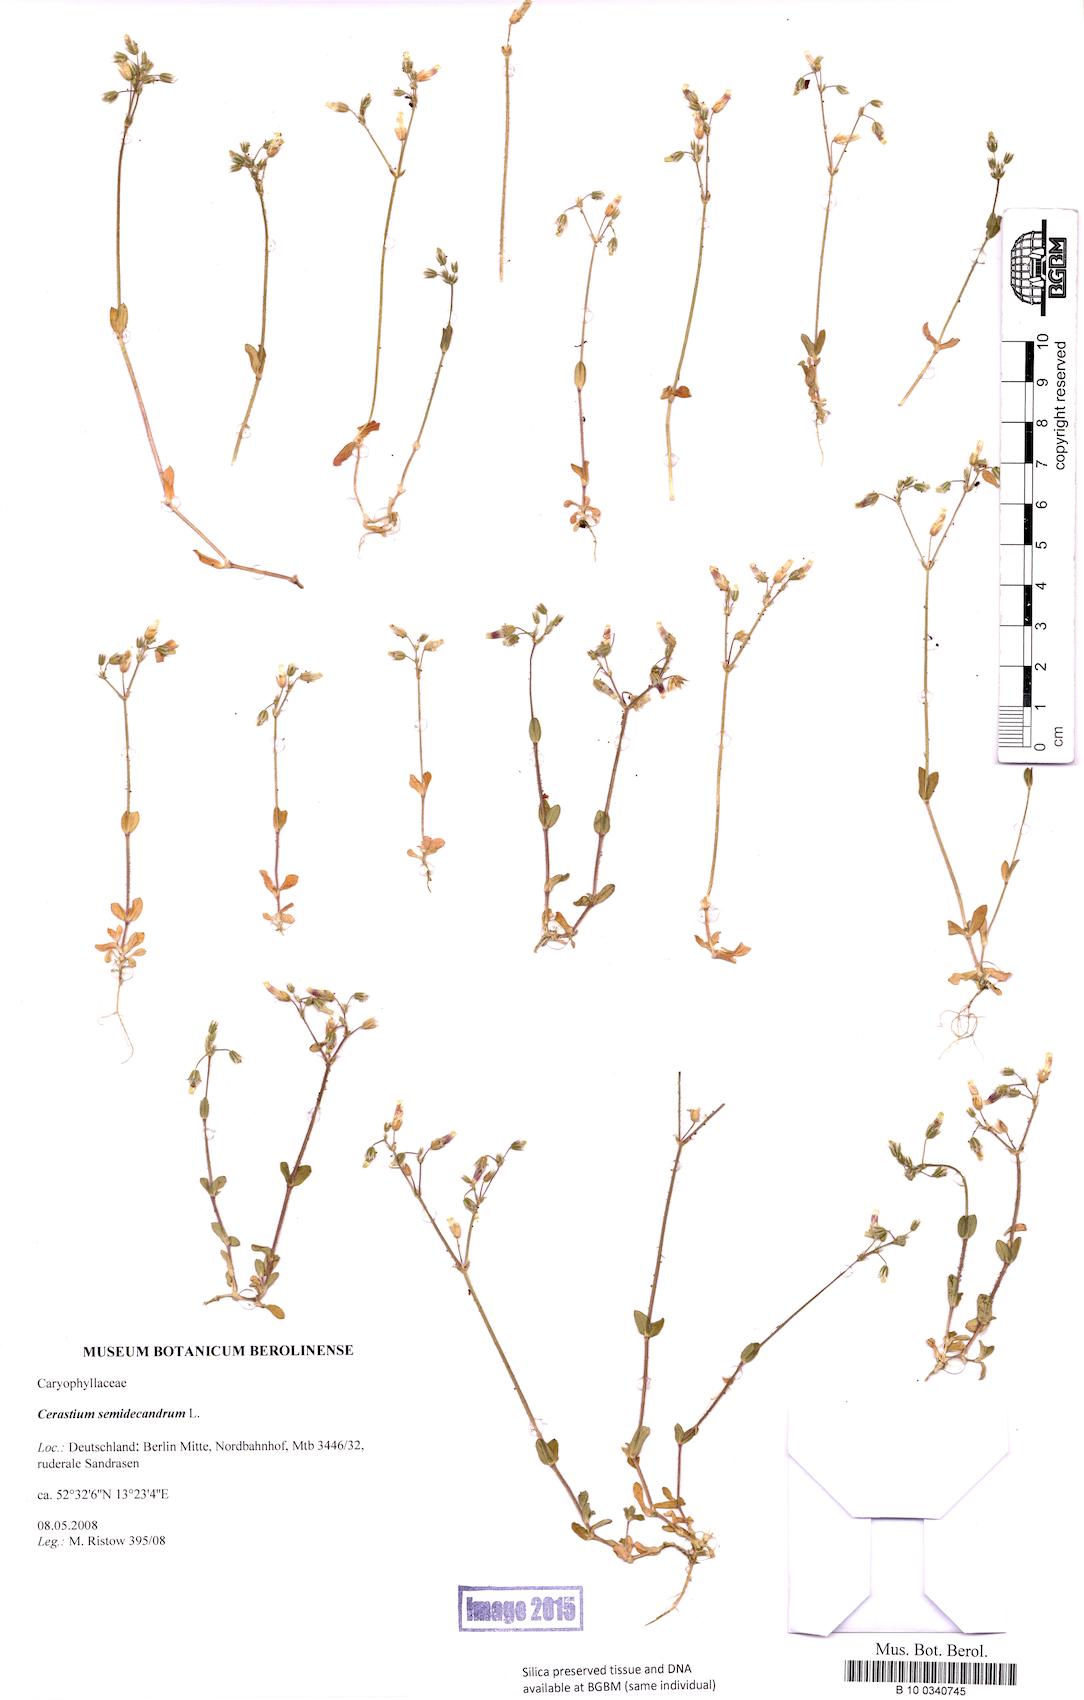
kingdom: Plantae
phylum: Tracheophyta
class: Magnoliopsida
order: Caryophyllales
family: Caryophyllaceae
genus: Cerastium
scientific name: Cerastium semidecandrum
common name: Little mouse-ear
